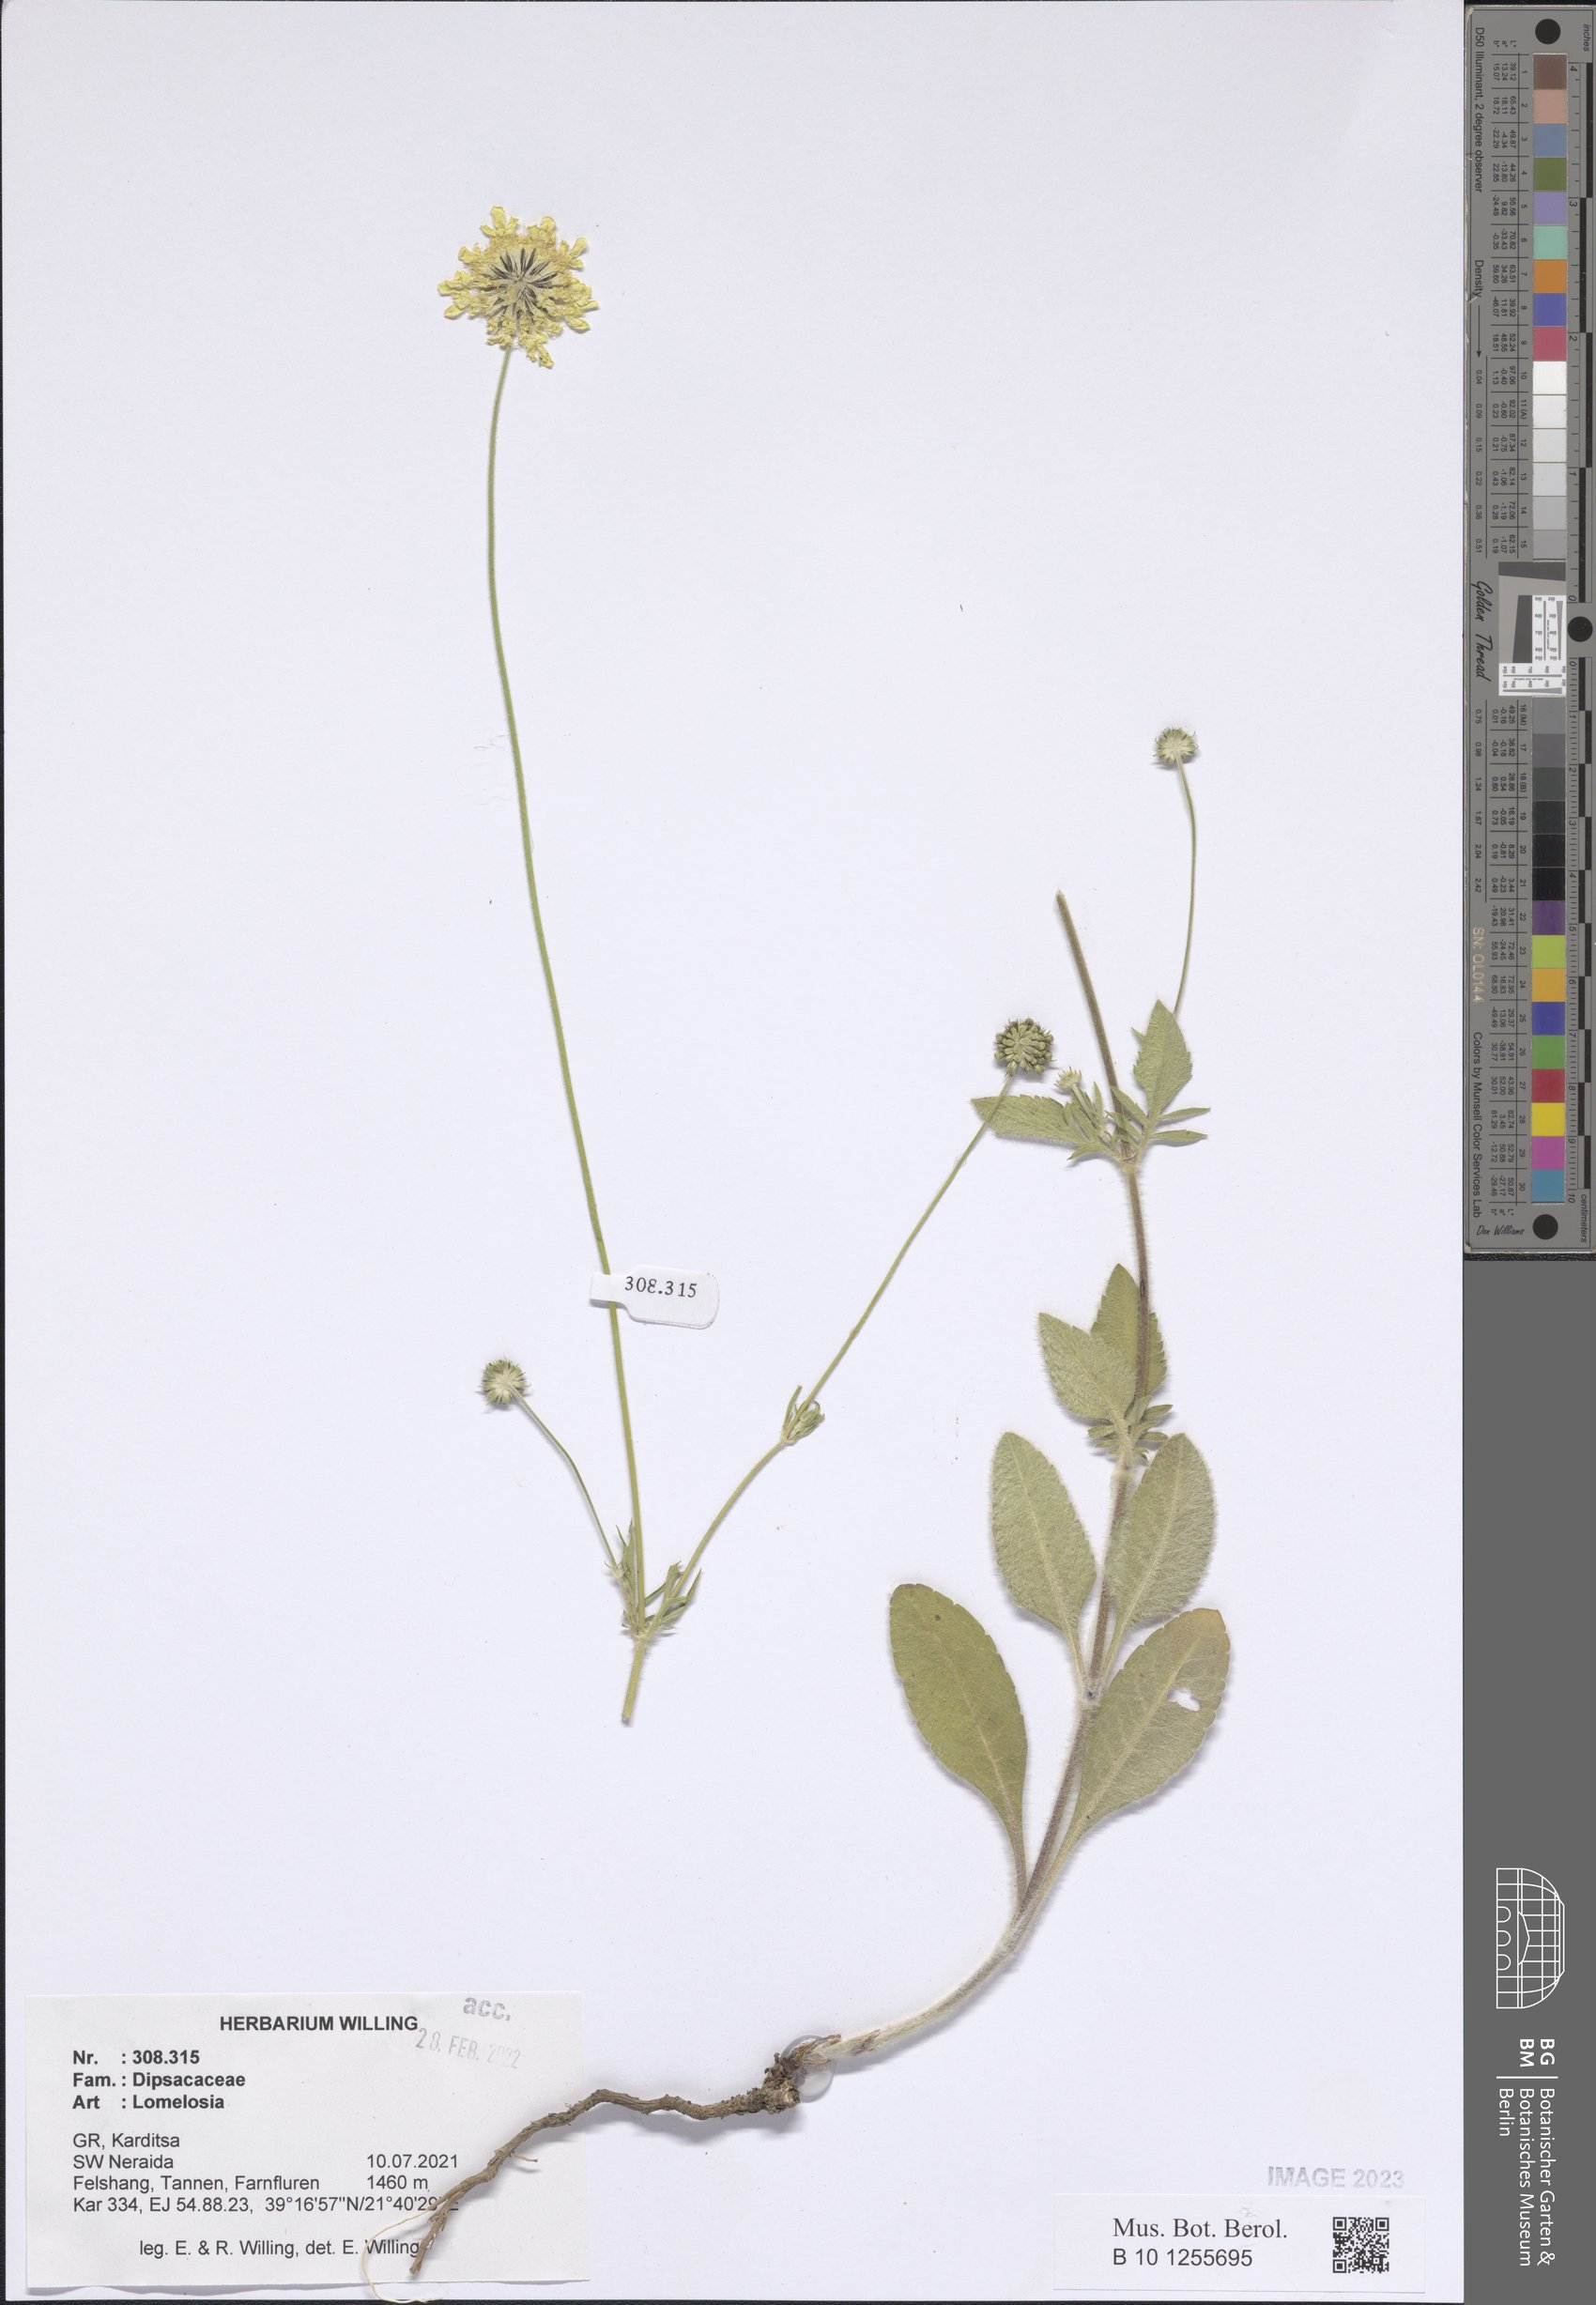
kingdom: Plantae
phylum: Tracheophyta
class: Magnoliopsida
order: Dipsacales
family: Caprifoliaceae
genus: Lomelosia
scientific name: Lomelosia
